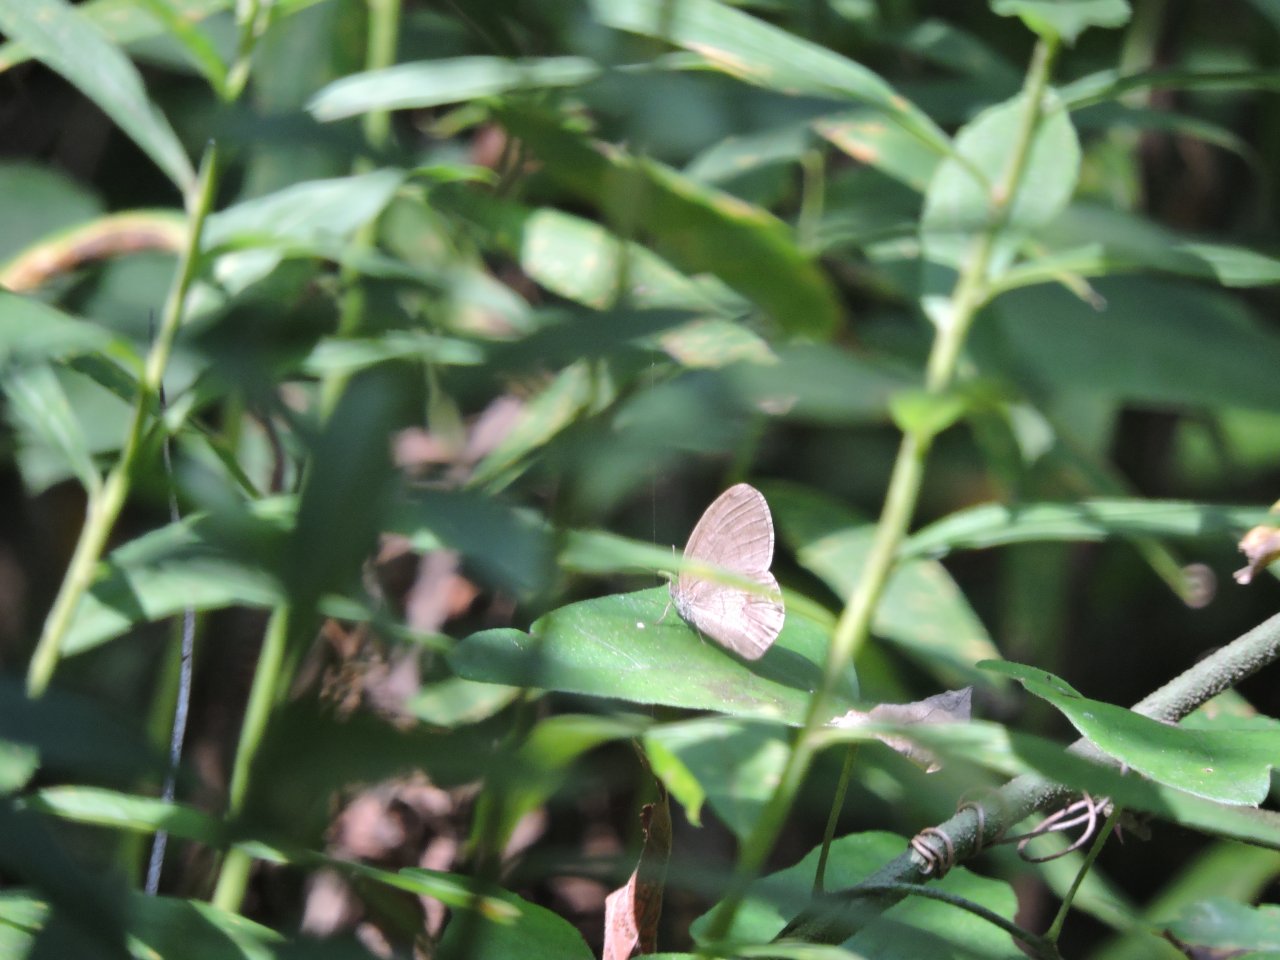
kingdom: Animalia
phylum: Arthropoda
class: Insecta
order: Lepidoptera
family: Nymphalidae
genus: Euptychia
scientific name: Euptychia cornelius
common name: Gemmed Satyr
